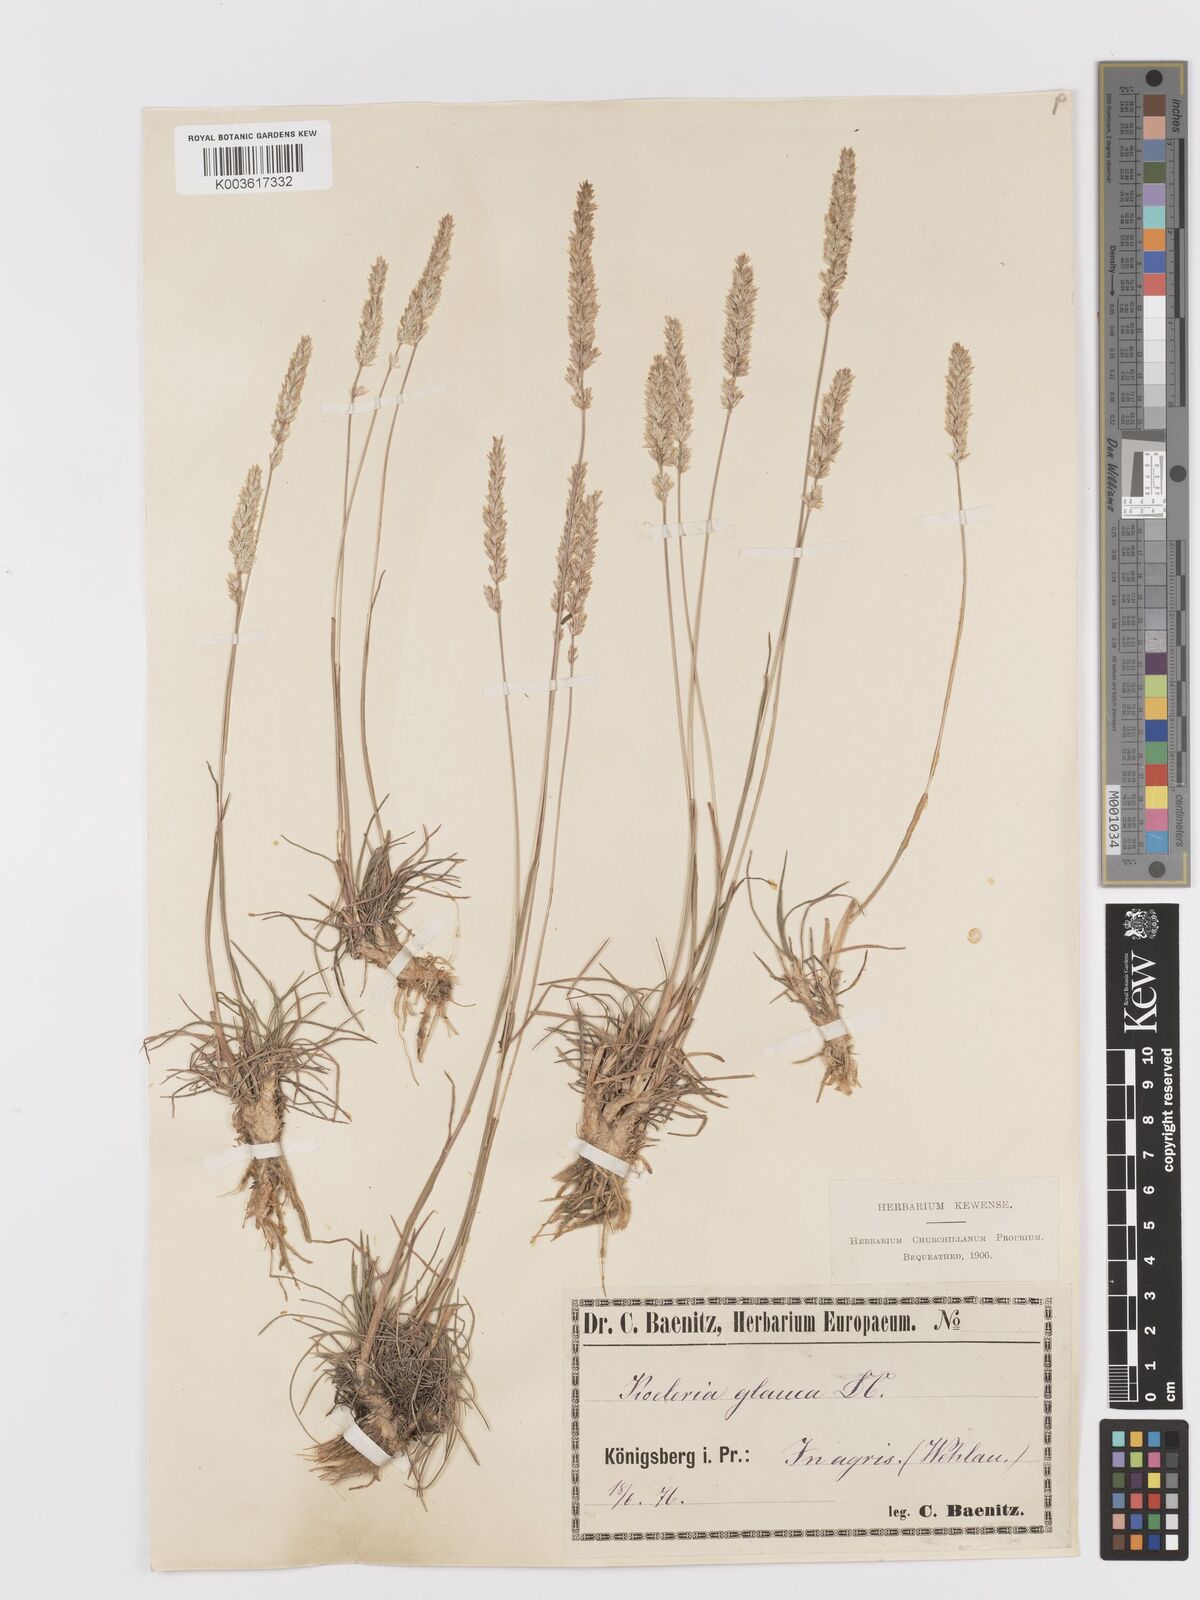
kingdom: Plantae
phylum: Tracheophyta
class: Liliopsida
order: Poales
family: Poaceae
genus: Koeleria
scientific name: Koeleria glauca
